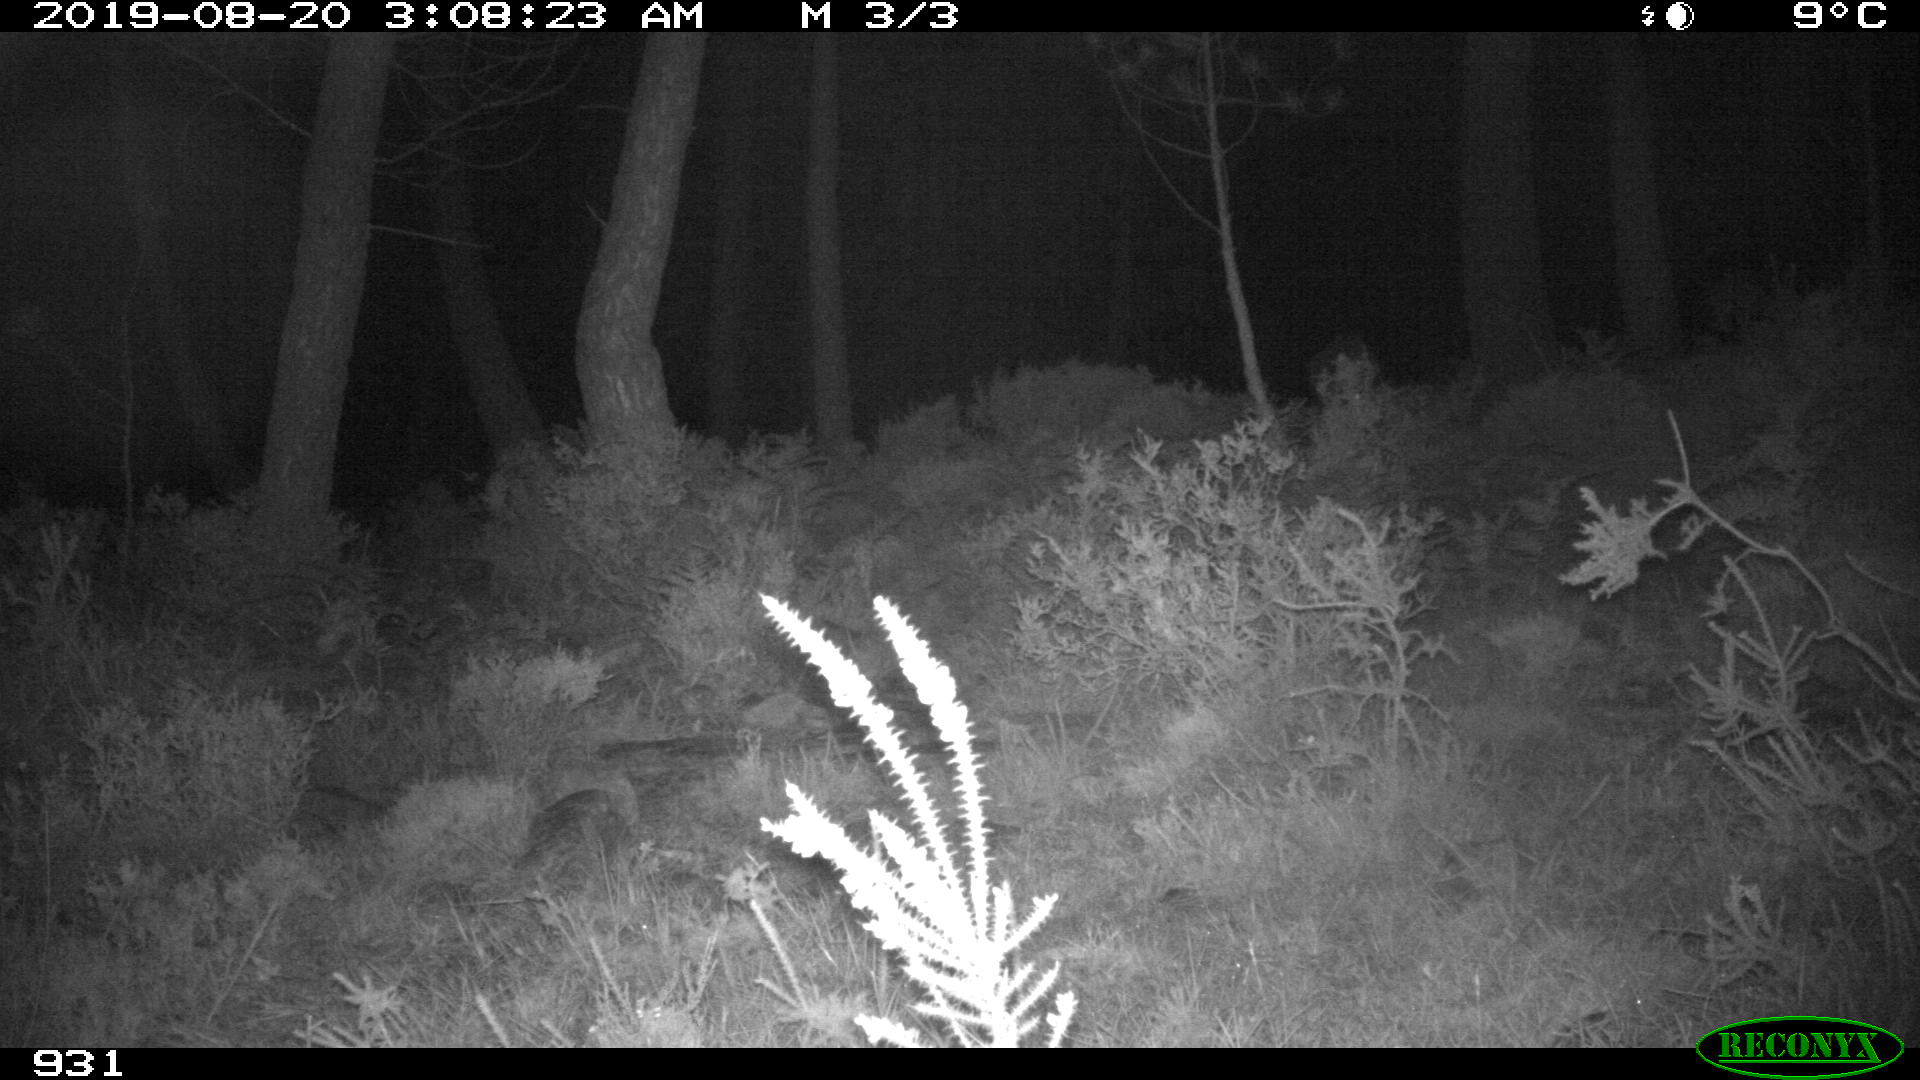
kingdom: Animalia
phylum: Chordata
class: Mammalia
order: Artiodactyla
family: Suidae
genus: Sus
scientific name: Sus scrofa
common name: Wild boar
